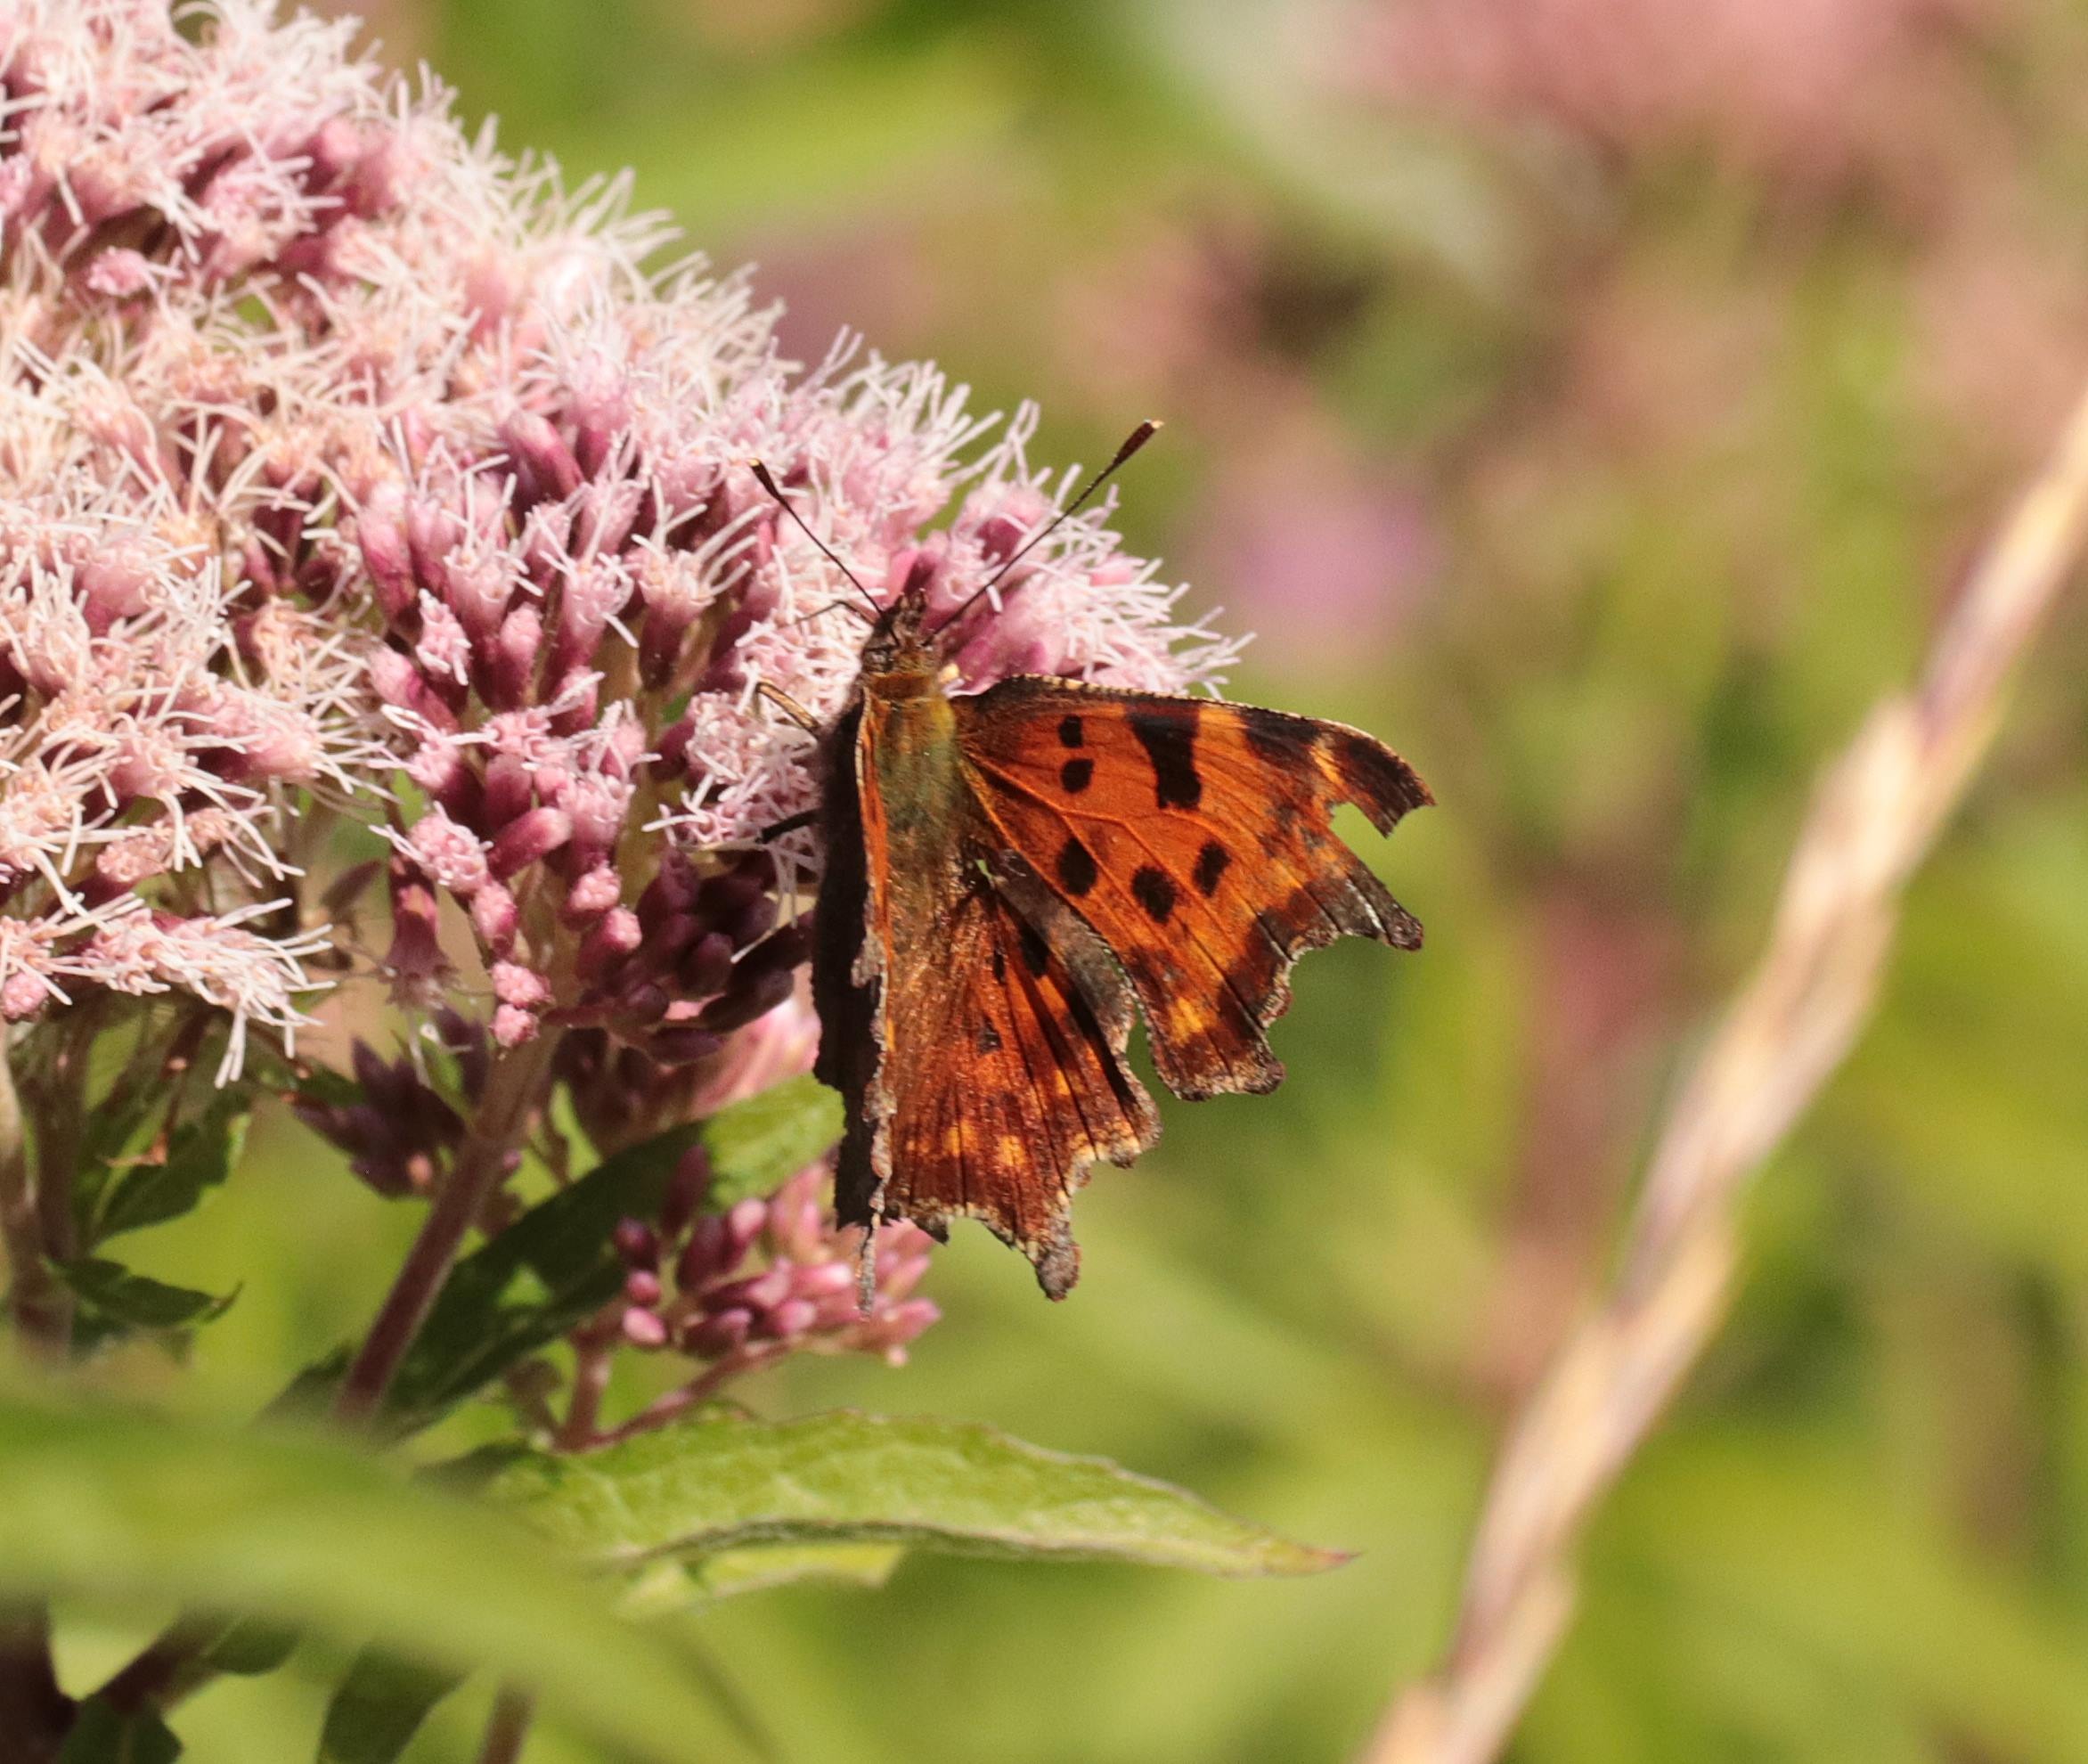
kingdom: Animalia
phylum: Arthropoda
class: Insecta
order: Lepidoptera
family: Nymphalidae
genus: Polygonia
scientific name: Polygonia c-album
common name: Det hvide C
